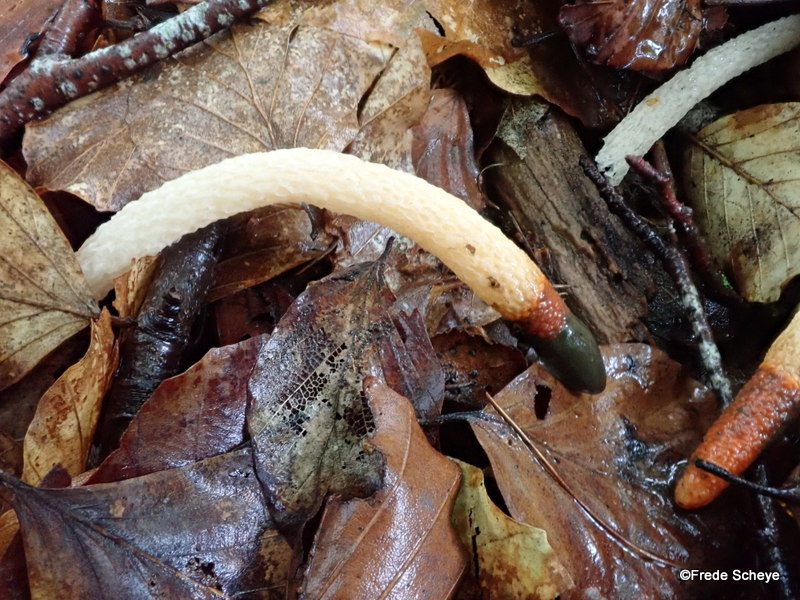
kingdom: Fungi
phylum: Basidiomycota
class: Agaricomycetes
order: Phallales
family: Phallaceae
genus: Mutinus
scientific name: Mutinus caninus
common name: hunde-stinksvamp
